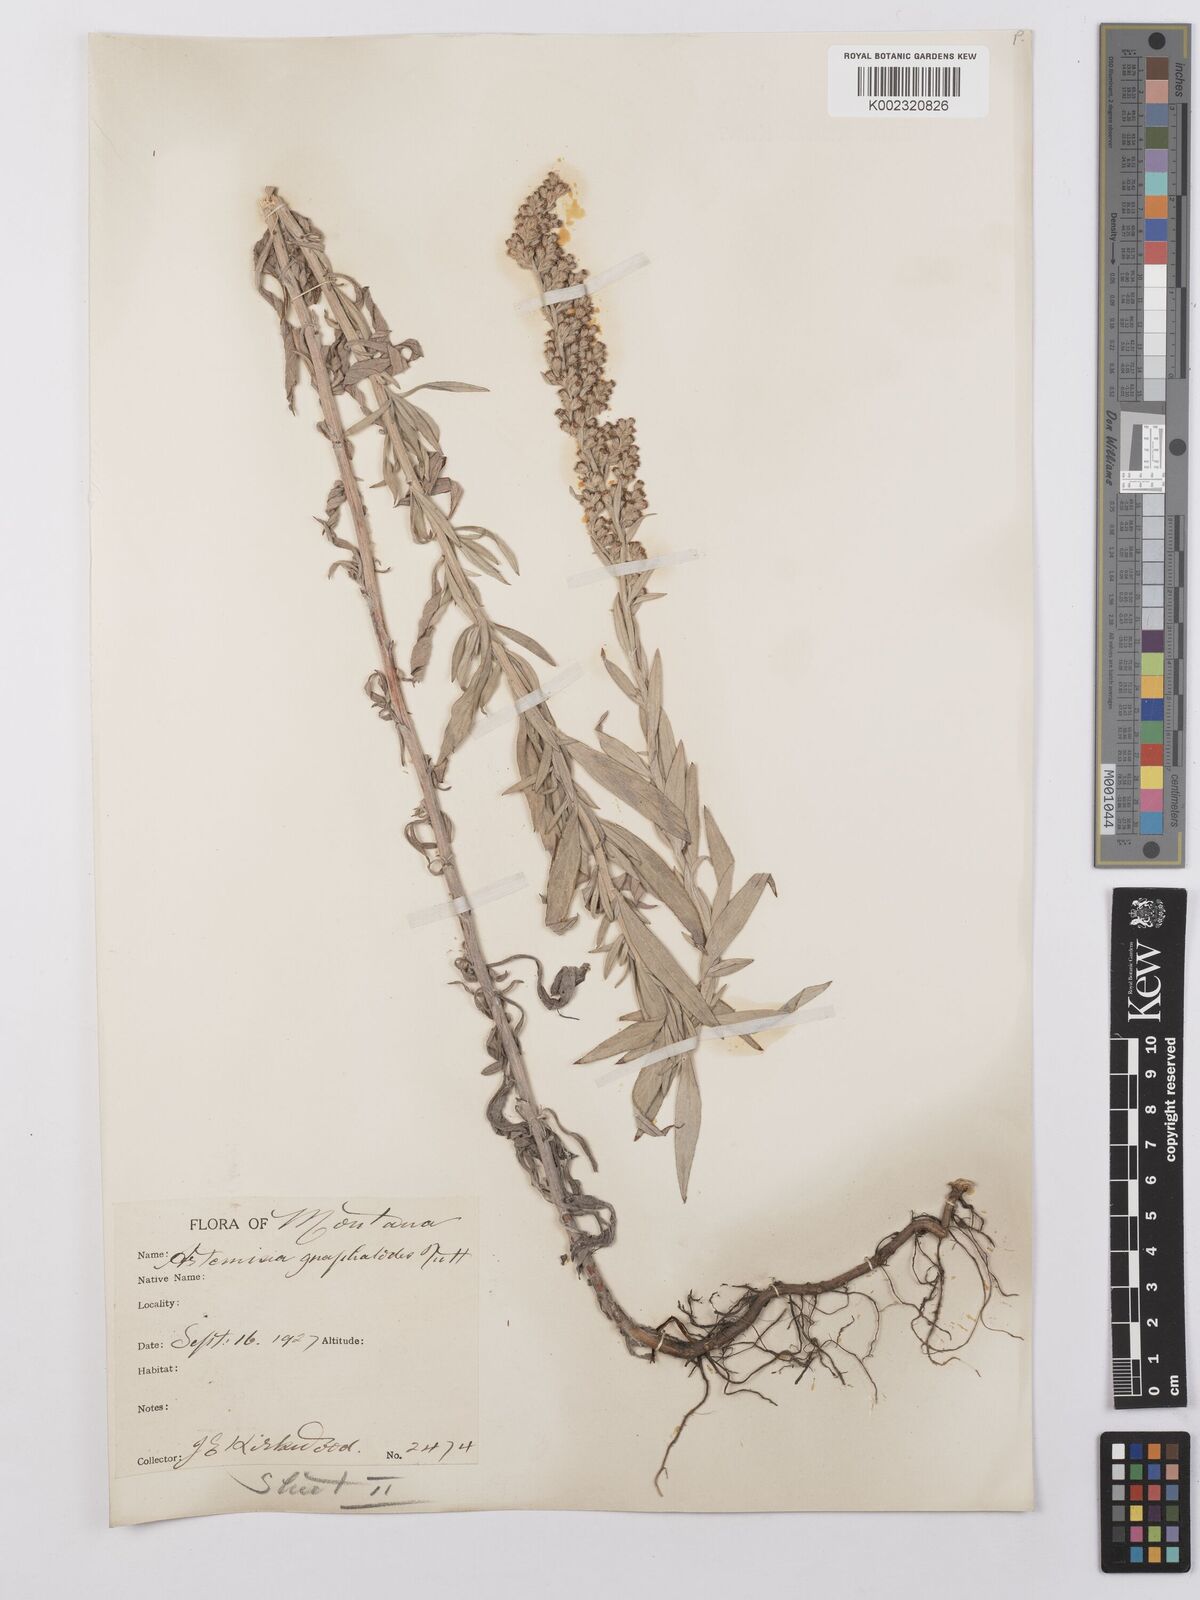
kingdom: Plantae
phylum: Tracheophyta
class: Magnoliopsida
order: Asterales
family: Asteraceae
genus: Artemisia
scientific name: Artemisia ludoviciana
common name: Western mugwort
